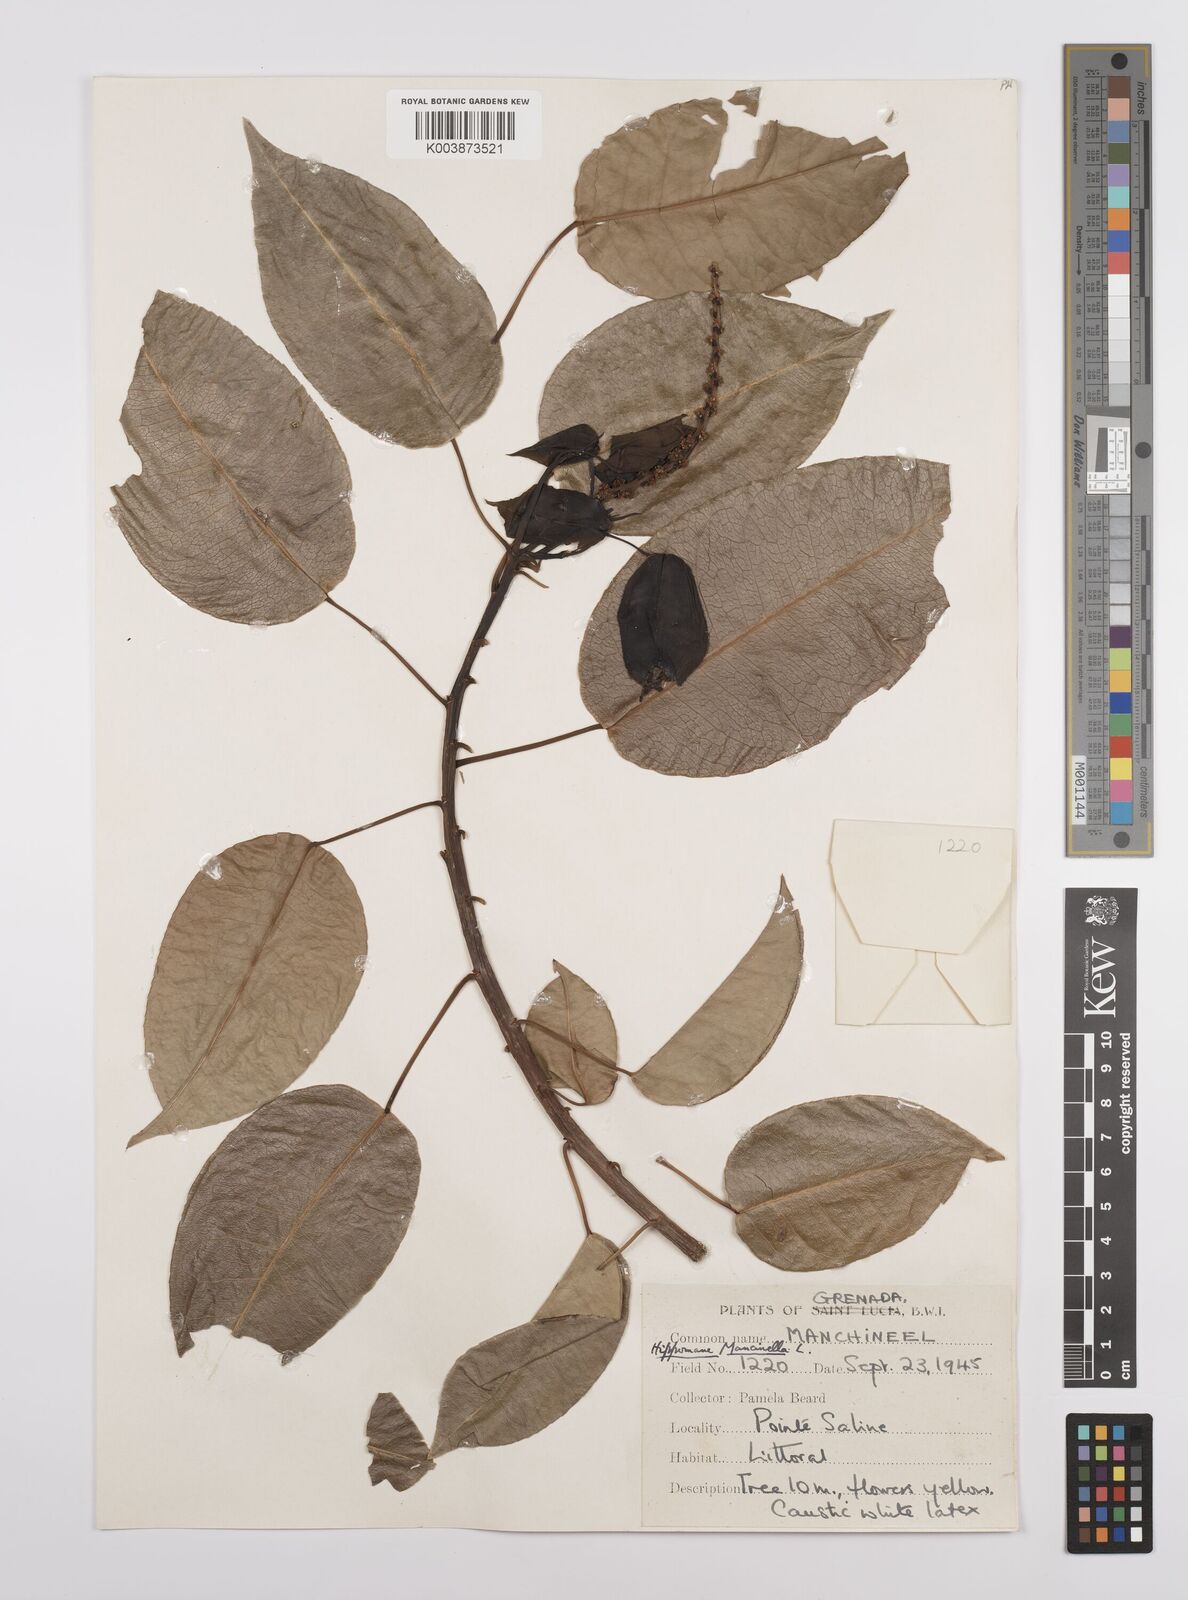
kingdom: Plantae
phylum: Tracheophyta
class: Magnoliopsida
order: Malpighiales
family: Euphorbiaceae
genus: Hippomane
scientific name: Hippomane mancinella
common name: Manchineel
